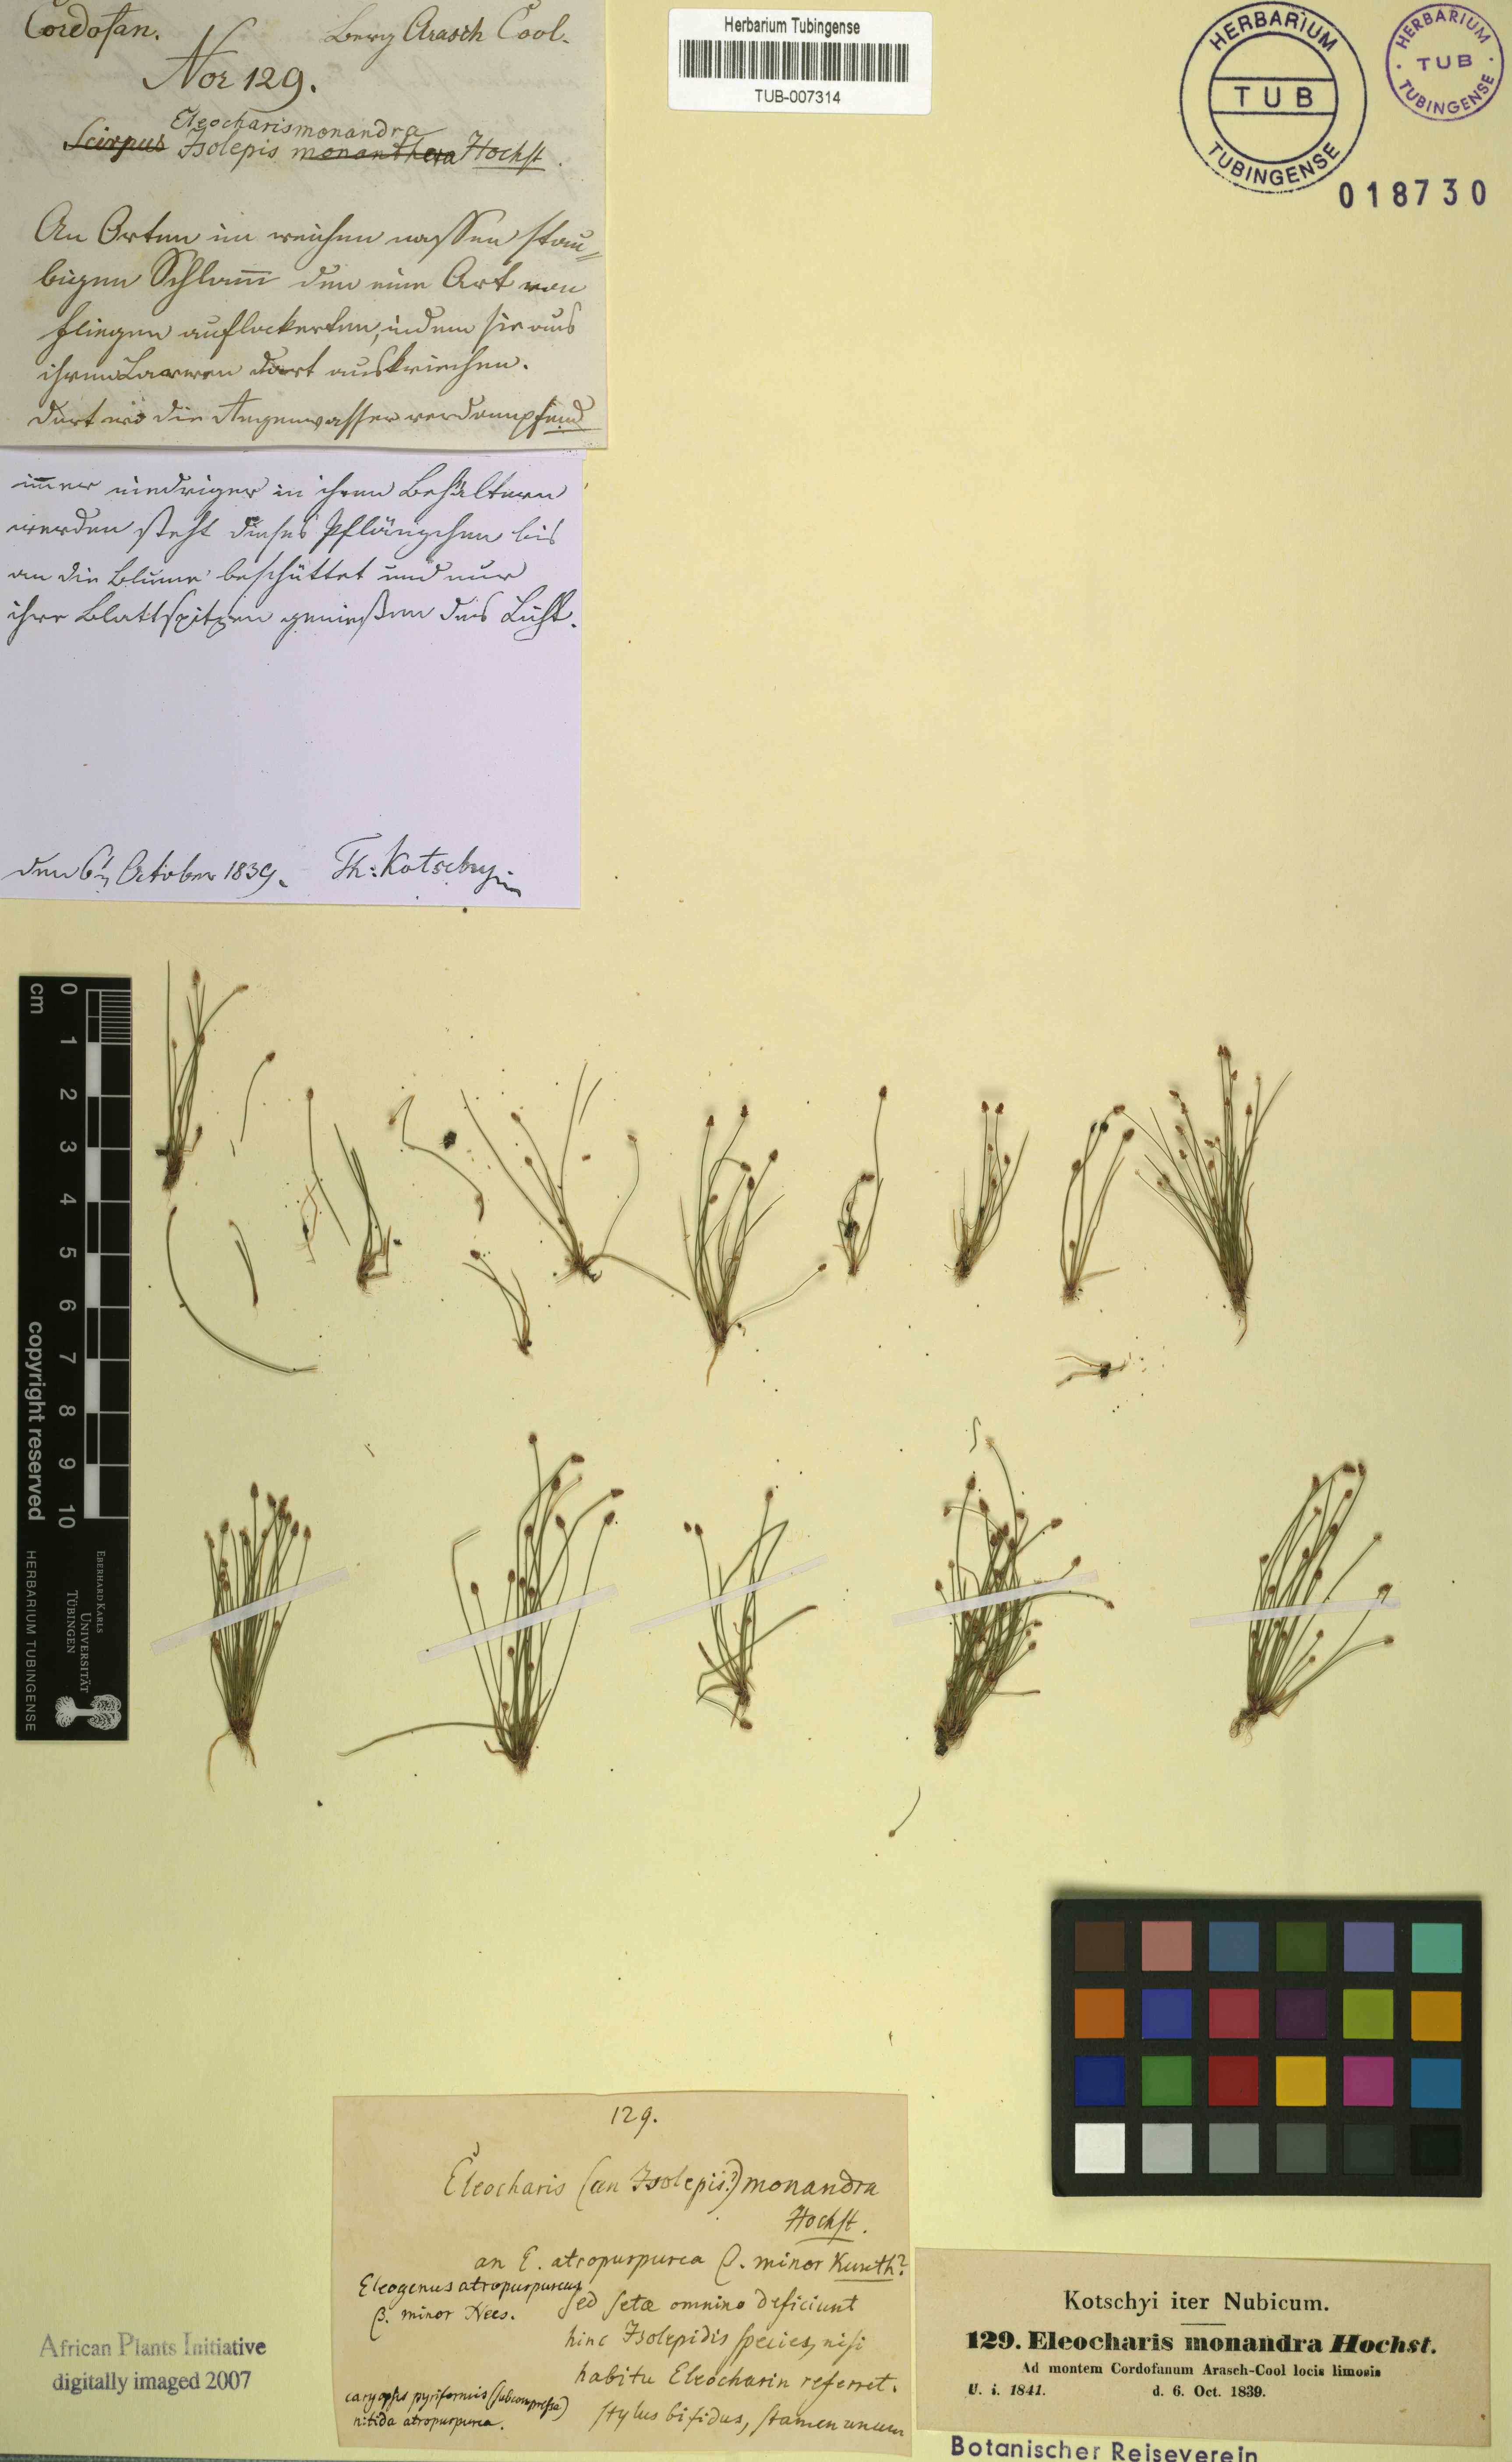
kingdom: Plantae
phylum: Tracheophyta
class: Liliopsida
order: Poales
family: Cyperaceae
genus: Eleocharis
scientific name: Eleocharis atropurpurea
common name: Purple spikerush
